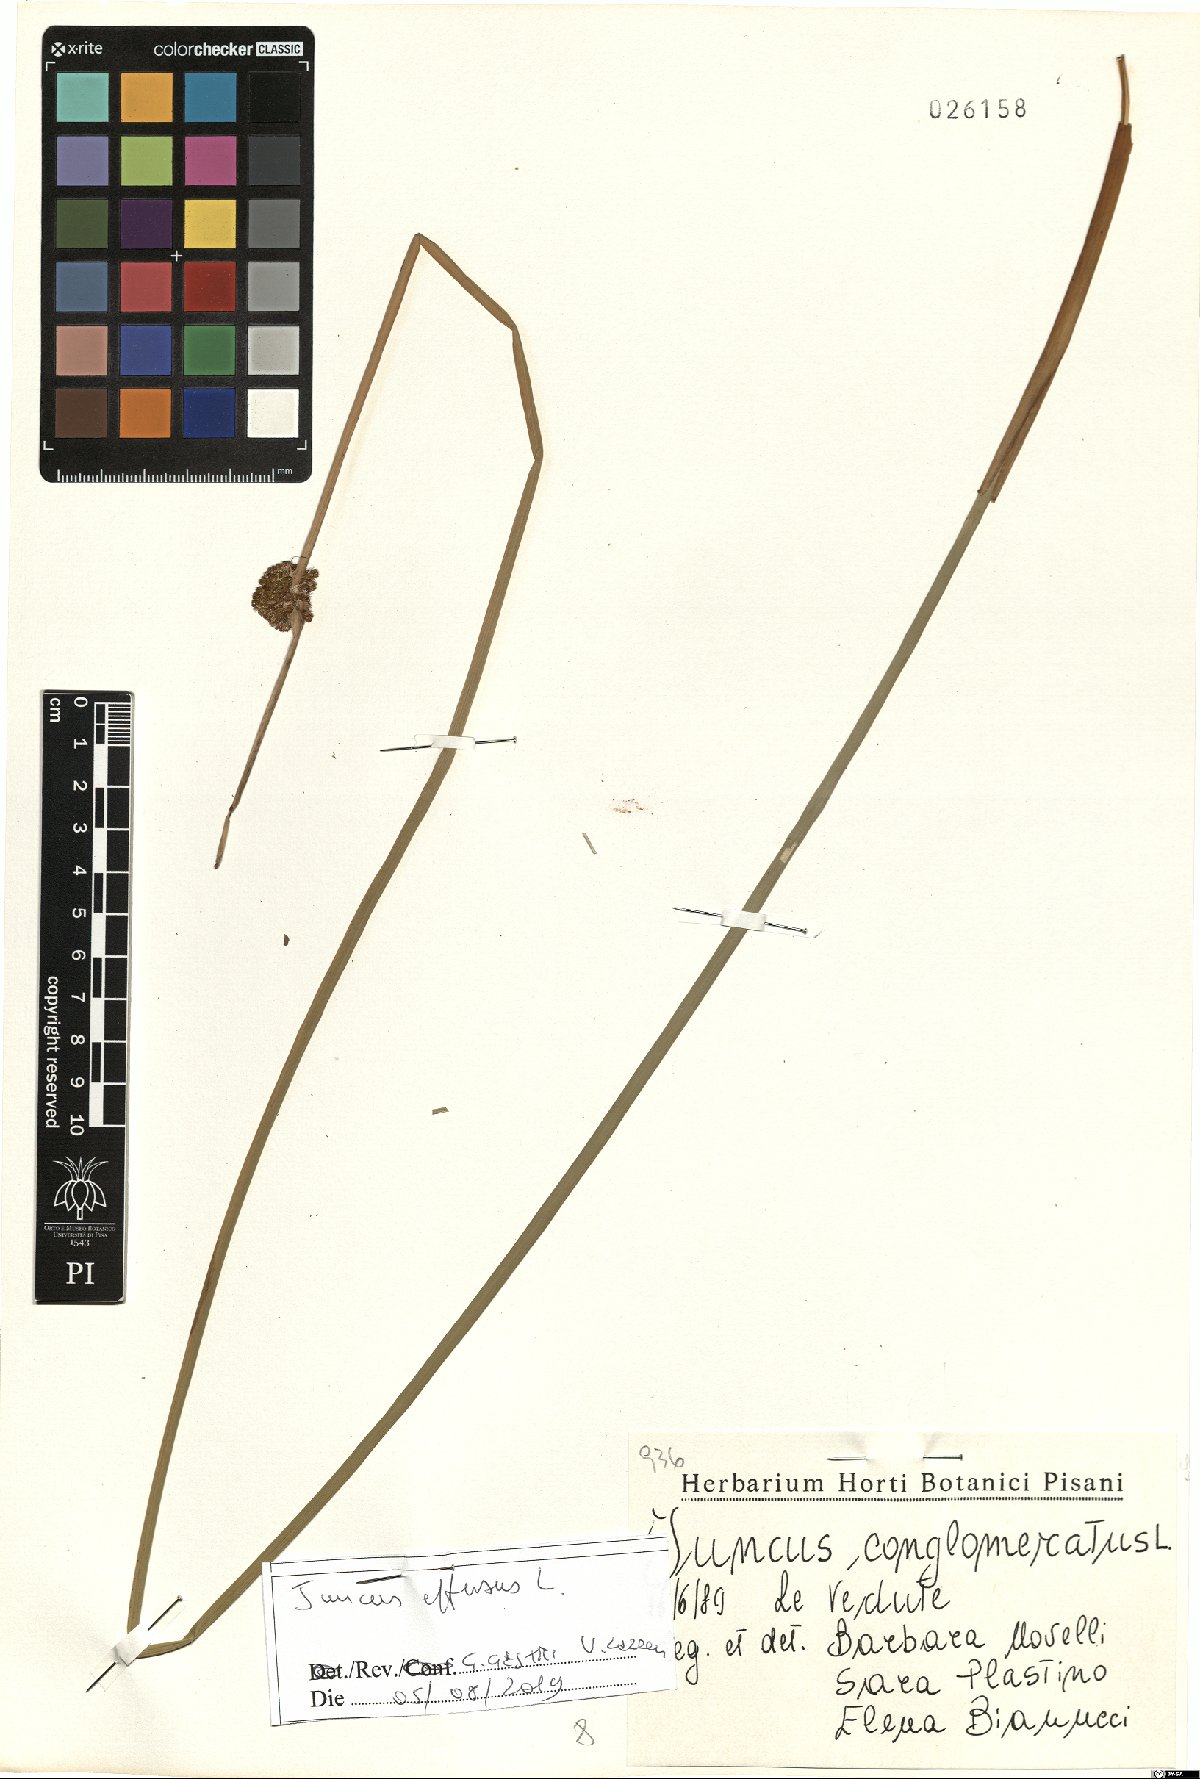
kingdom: Plantae
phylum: Tracheophyta
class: Liliopsida
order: Poales
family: Juncaceae
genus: Juncus
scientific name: Juncus effusus
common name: Soft rush
